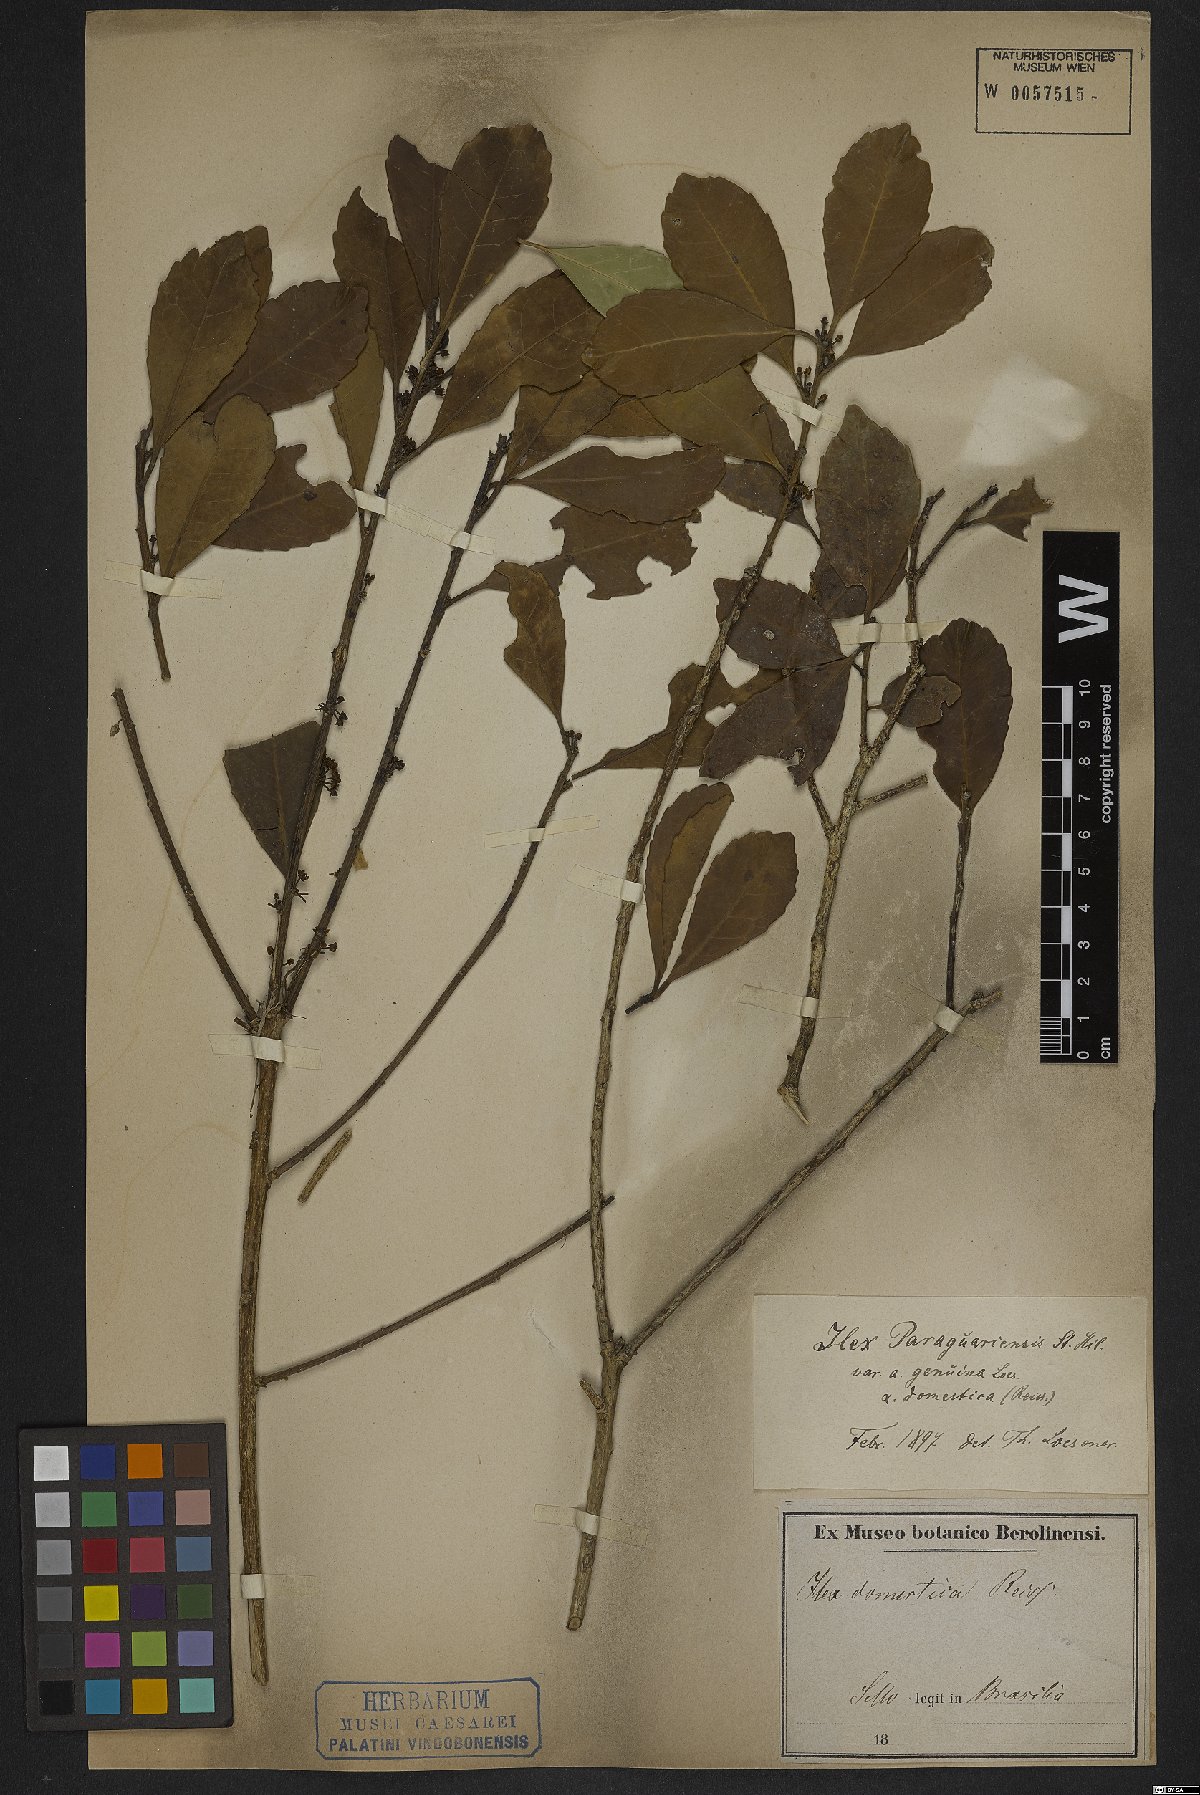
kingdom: Plantae
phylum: Tracheophyta
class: Magnoliopsida
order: Aquifoliales
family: Aquifoliaceae
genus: Ilex
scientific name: Ilex paraguariensis
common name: Paraguay tea
